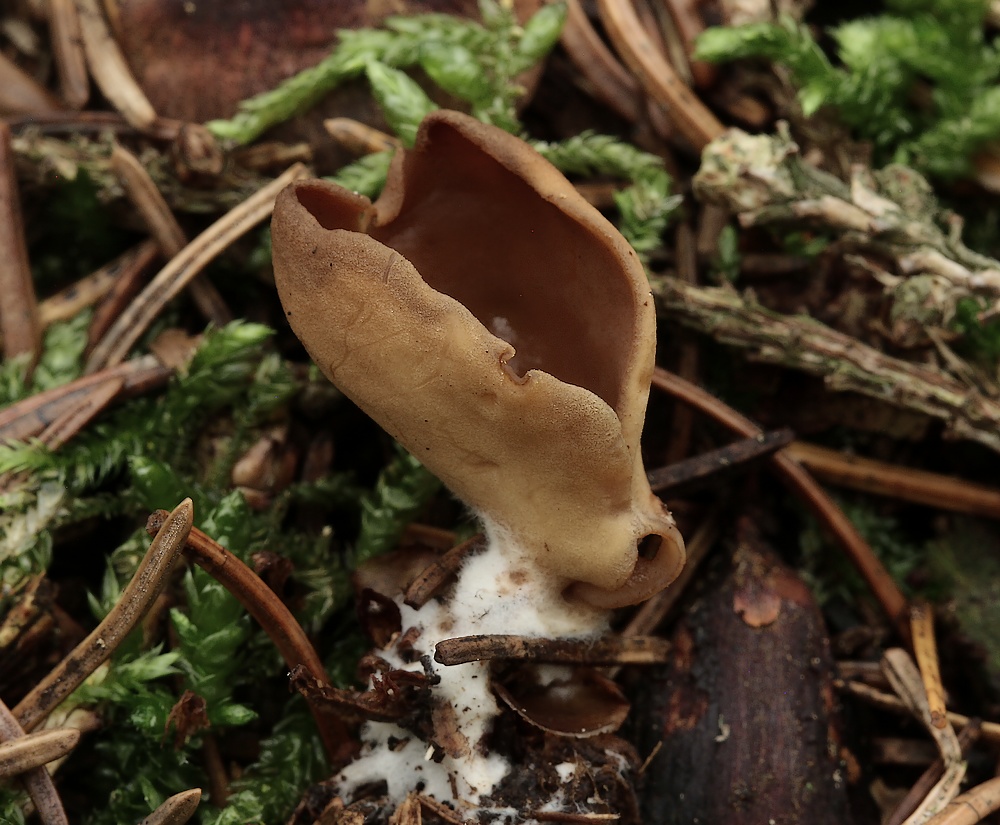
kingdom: Fungi
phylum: Ascomycota
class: Pezizomycetes
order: Pezizales
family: Otideaceae
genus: Otidea
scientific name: Otidea leporina
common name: hare-ørebæger
